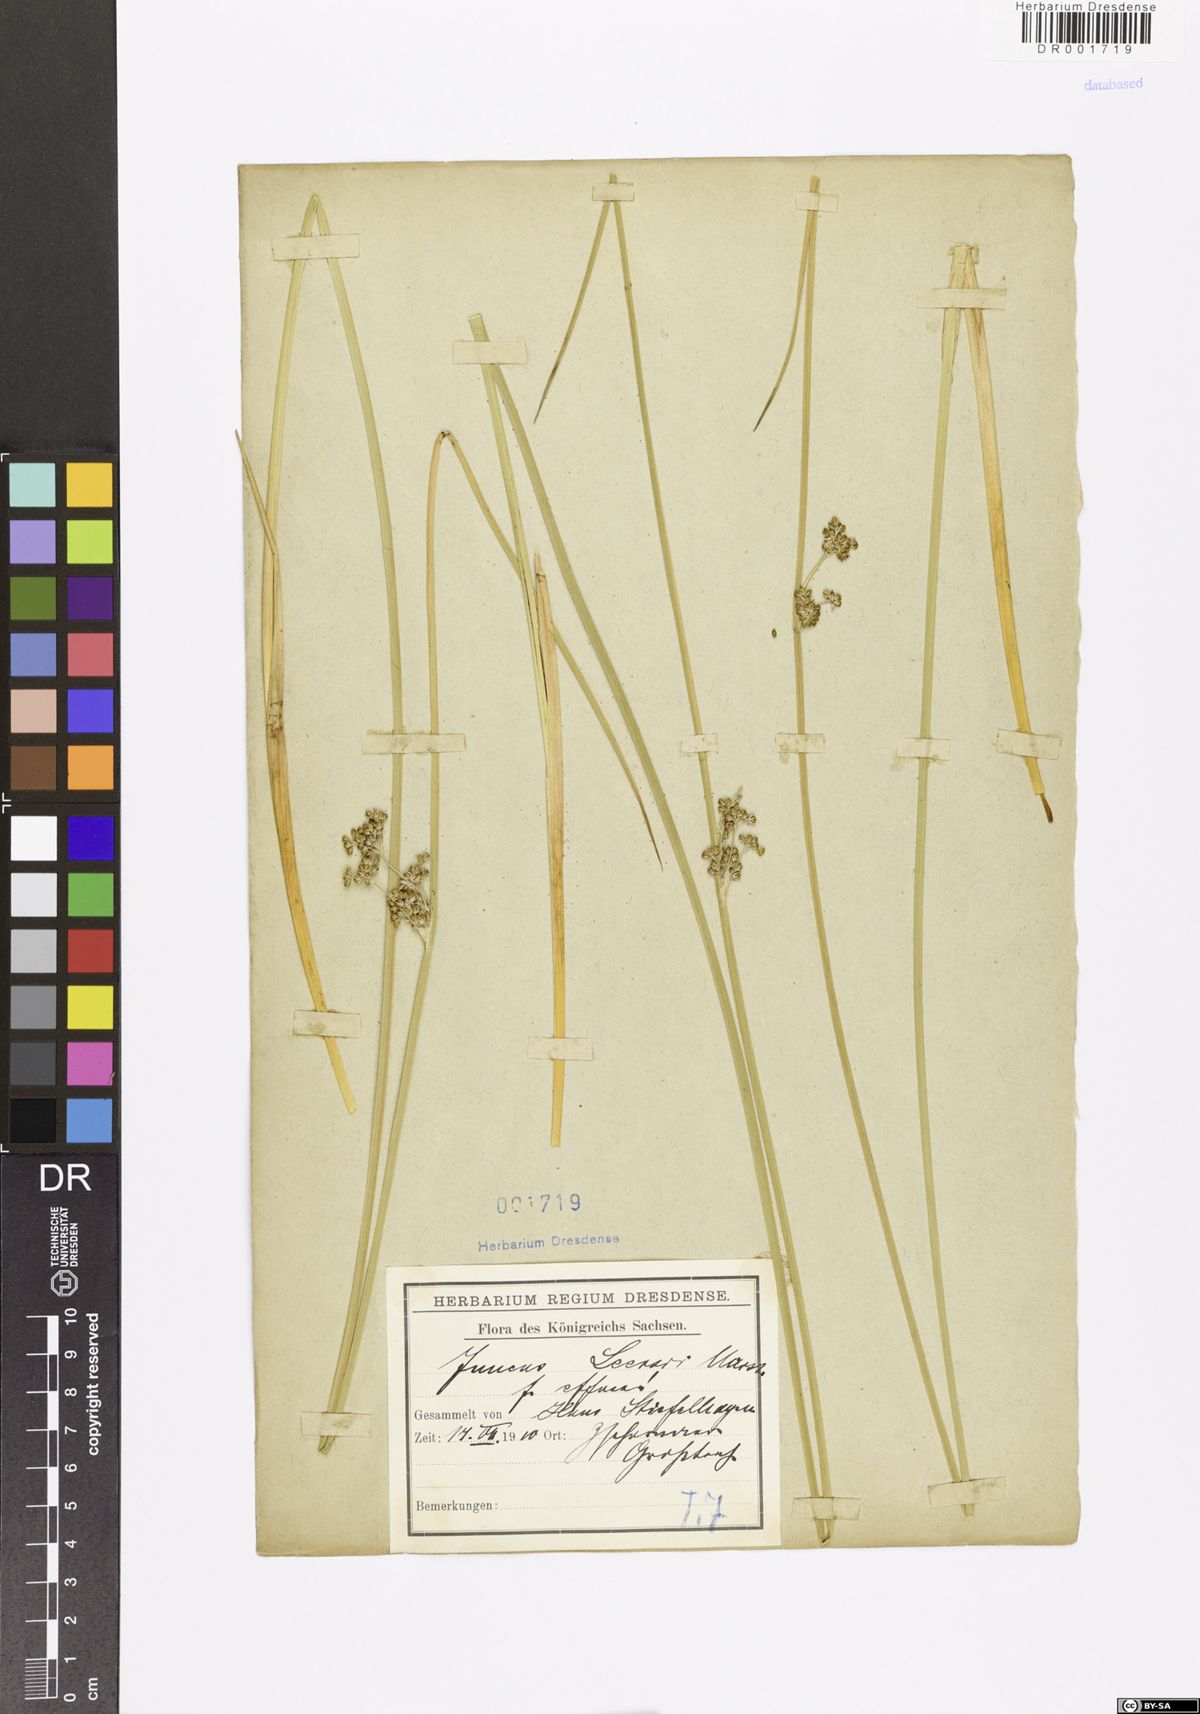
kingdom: Plantae
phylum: Tracheophyta
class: Liliopsida
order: Poales
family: Juncaceae
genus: Juncus
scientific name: Juncus effusus
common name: Soft rush
